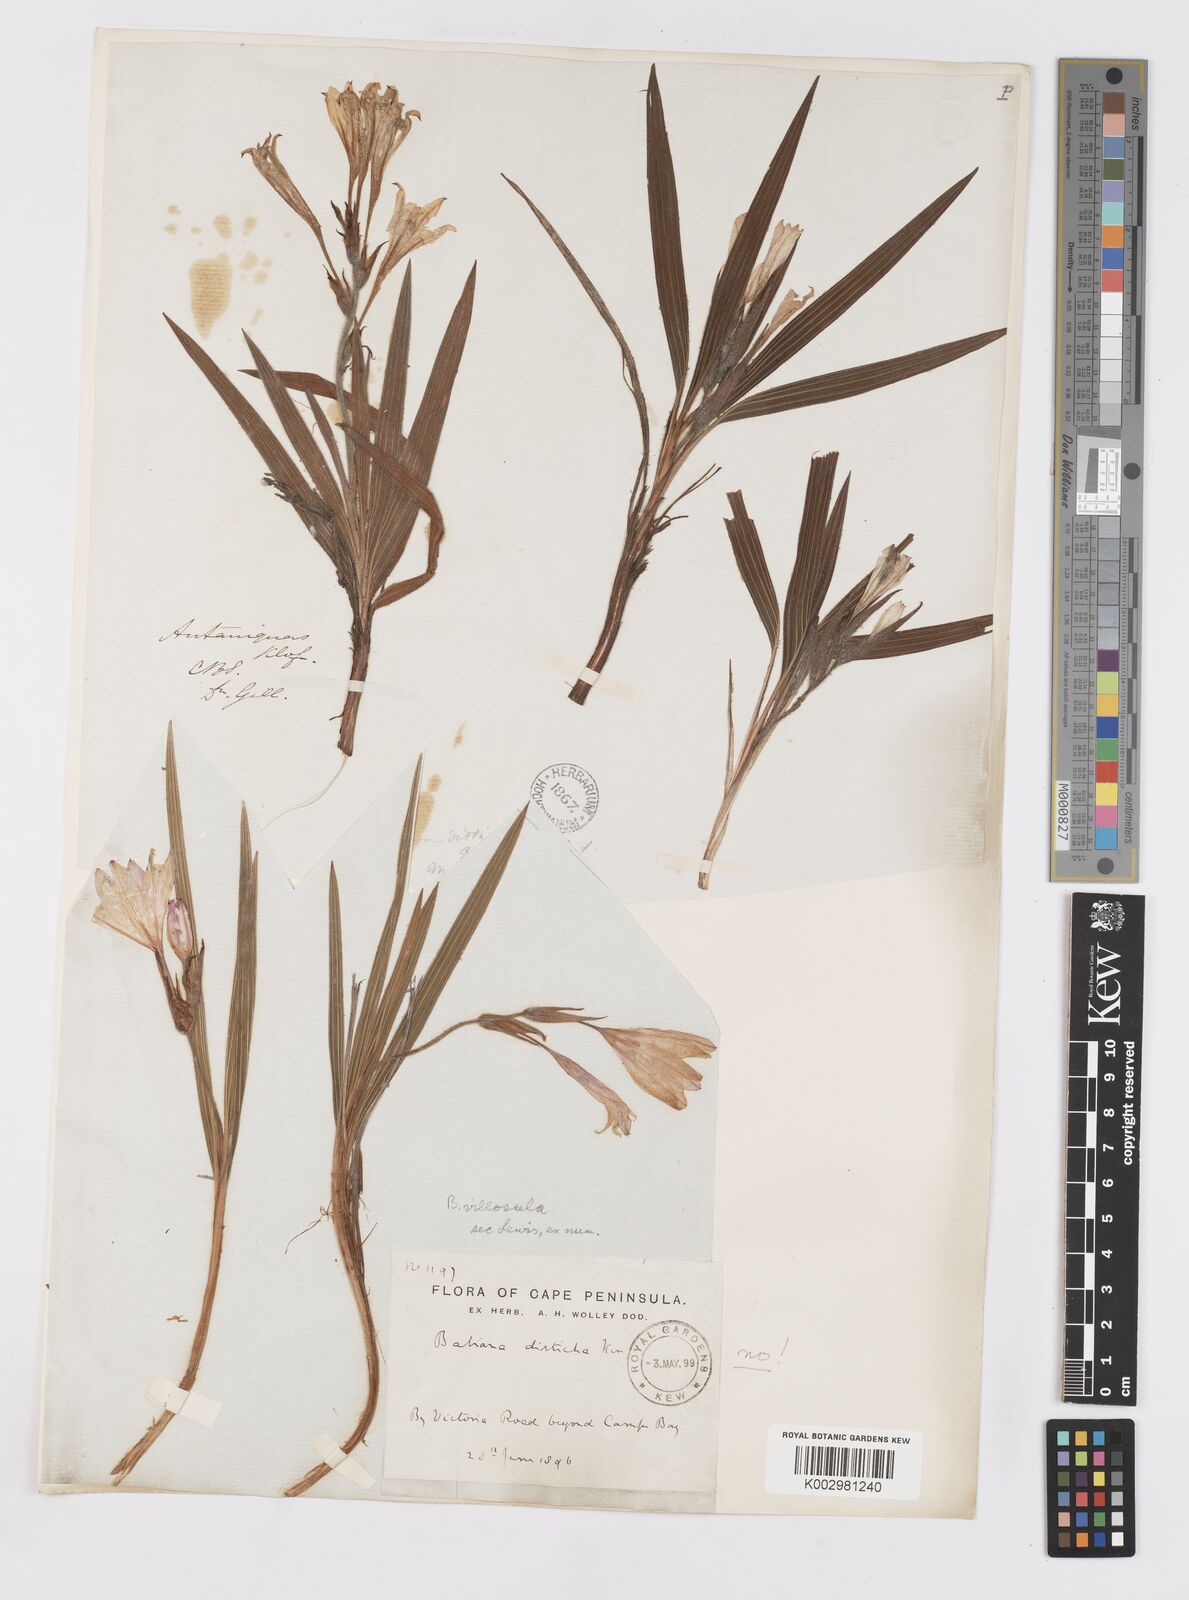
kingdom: Plantae
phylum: Tracheophyta
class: Liliopsida
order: Asparagales
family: Iridaceae
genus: Babiana
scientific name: Babiana villosula
